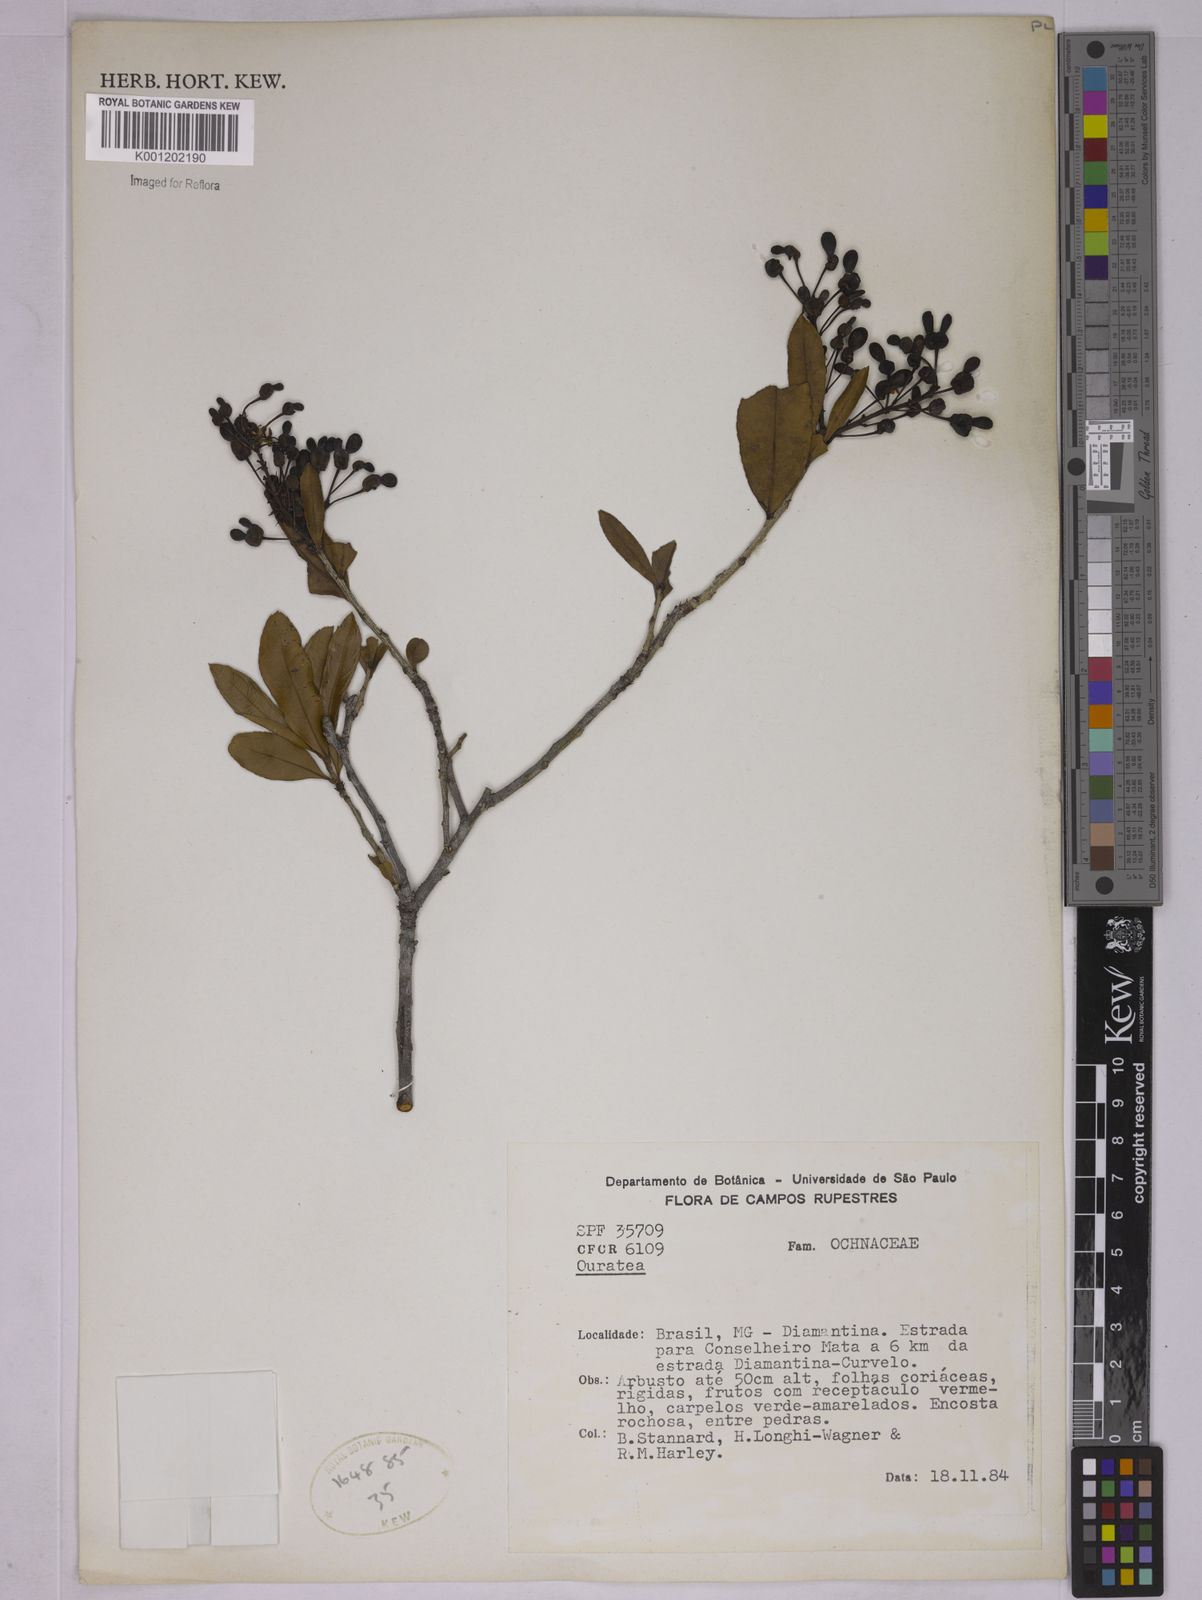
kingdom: Plantae
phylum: Tracheophyta
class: Magnoliopsida
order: Malpighiales
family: Ochnaceae
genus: Ouratea
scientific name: Ouratea
